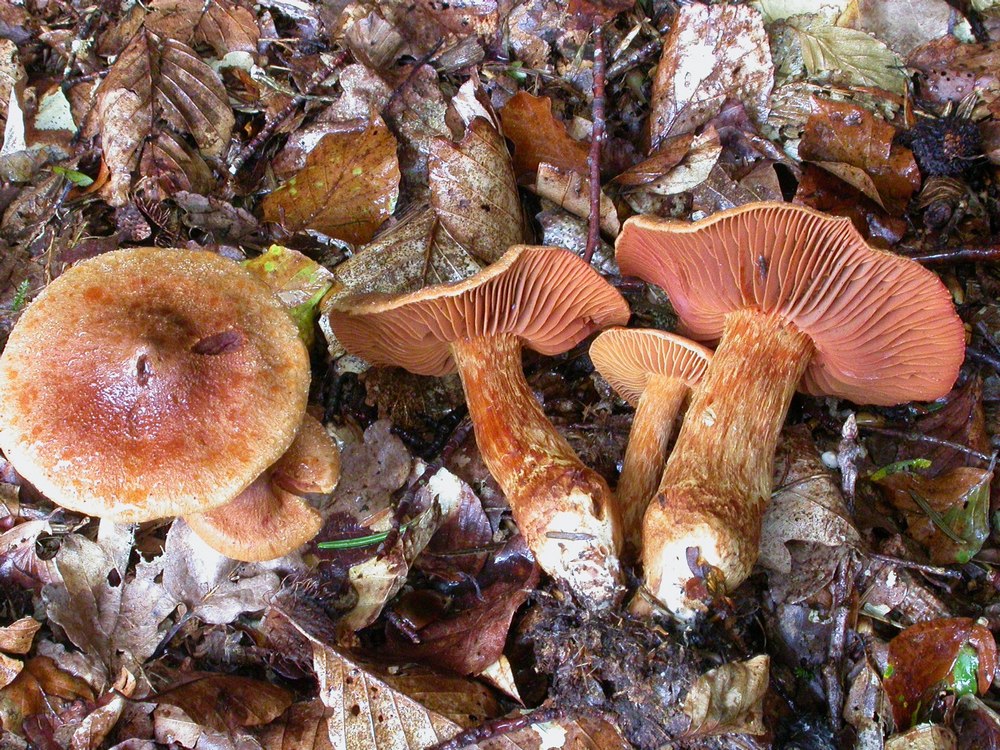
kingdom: Fungi
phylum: Basidiomycota
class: Agaricomycetes
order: Agaricales
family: Cortinariaceae
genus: Cortinarius
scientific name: Cortinarius rubellus
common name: puklet gift-slørhat
